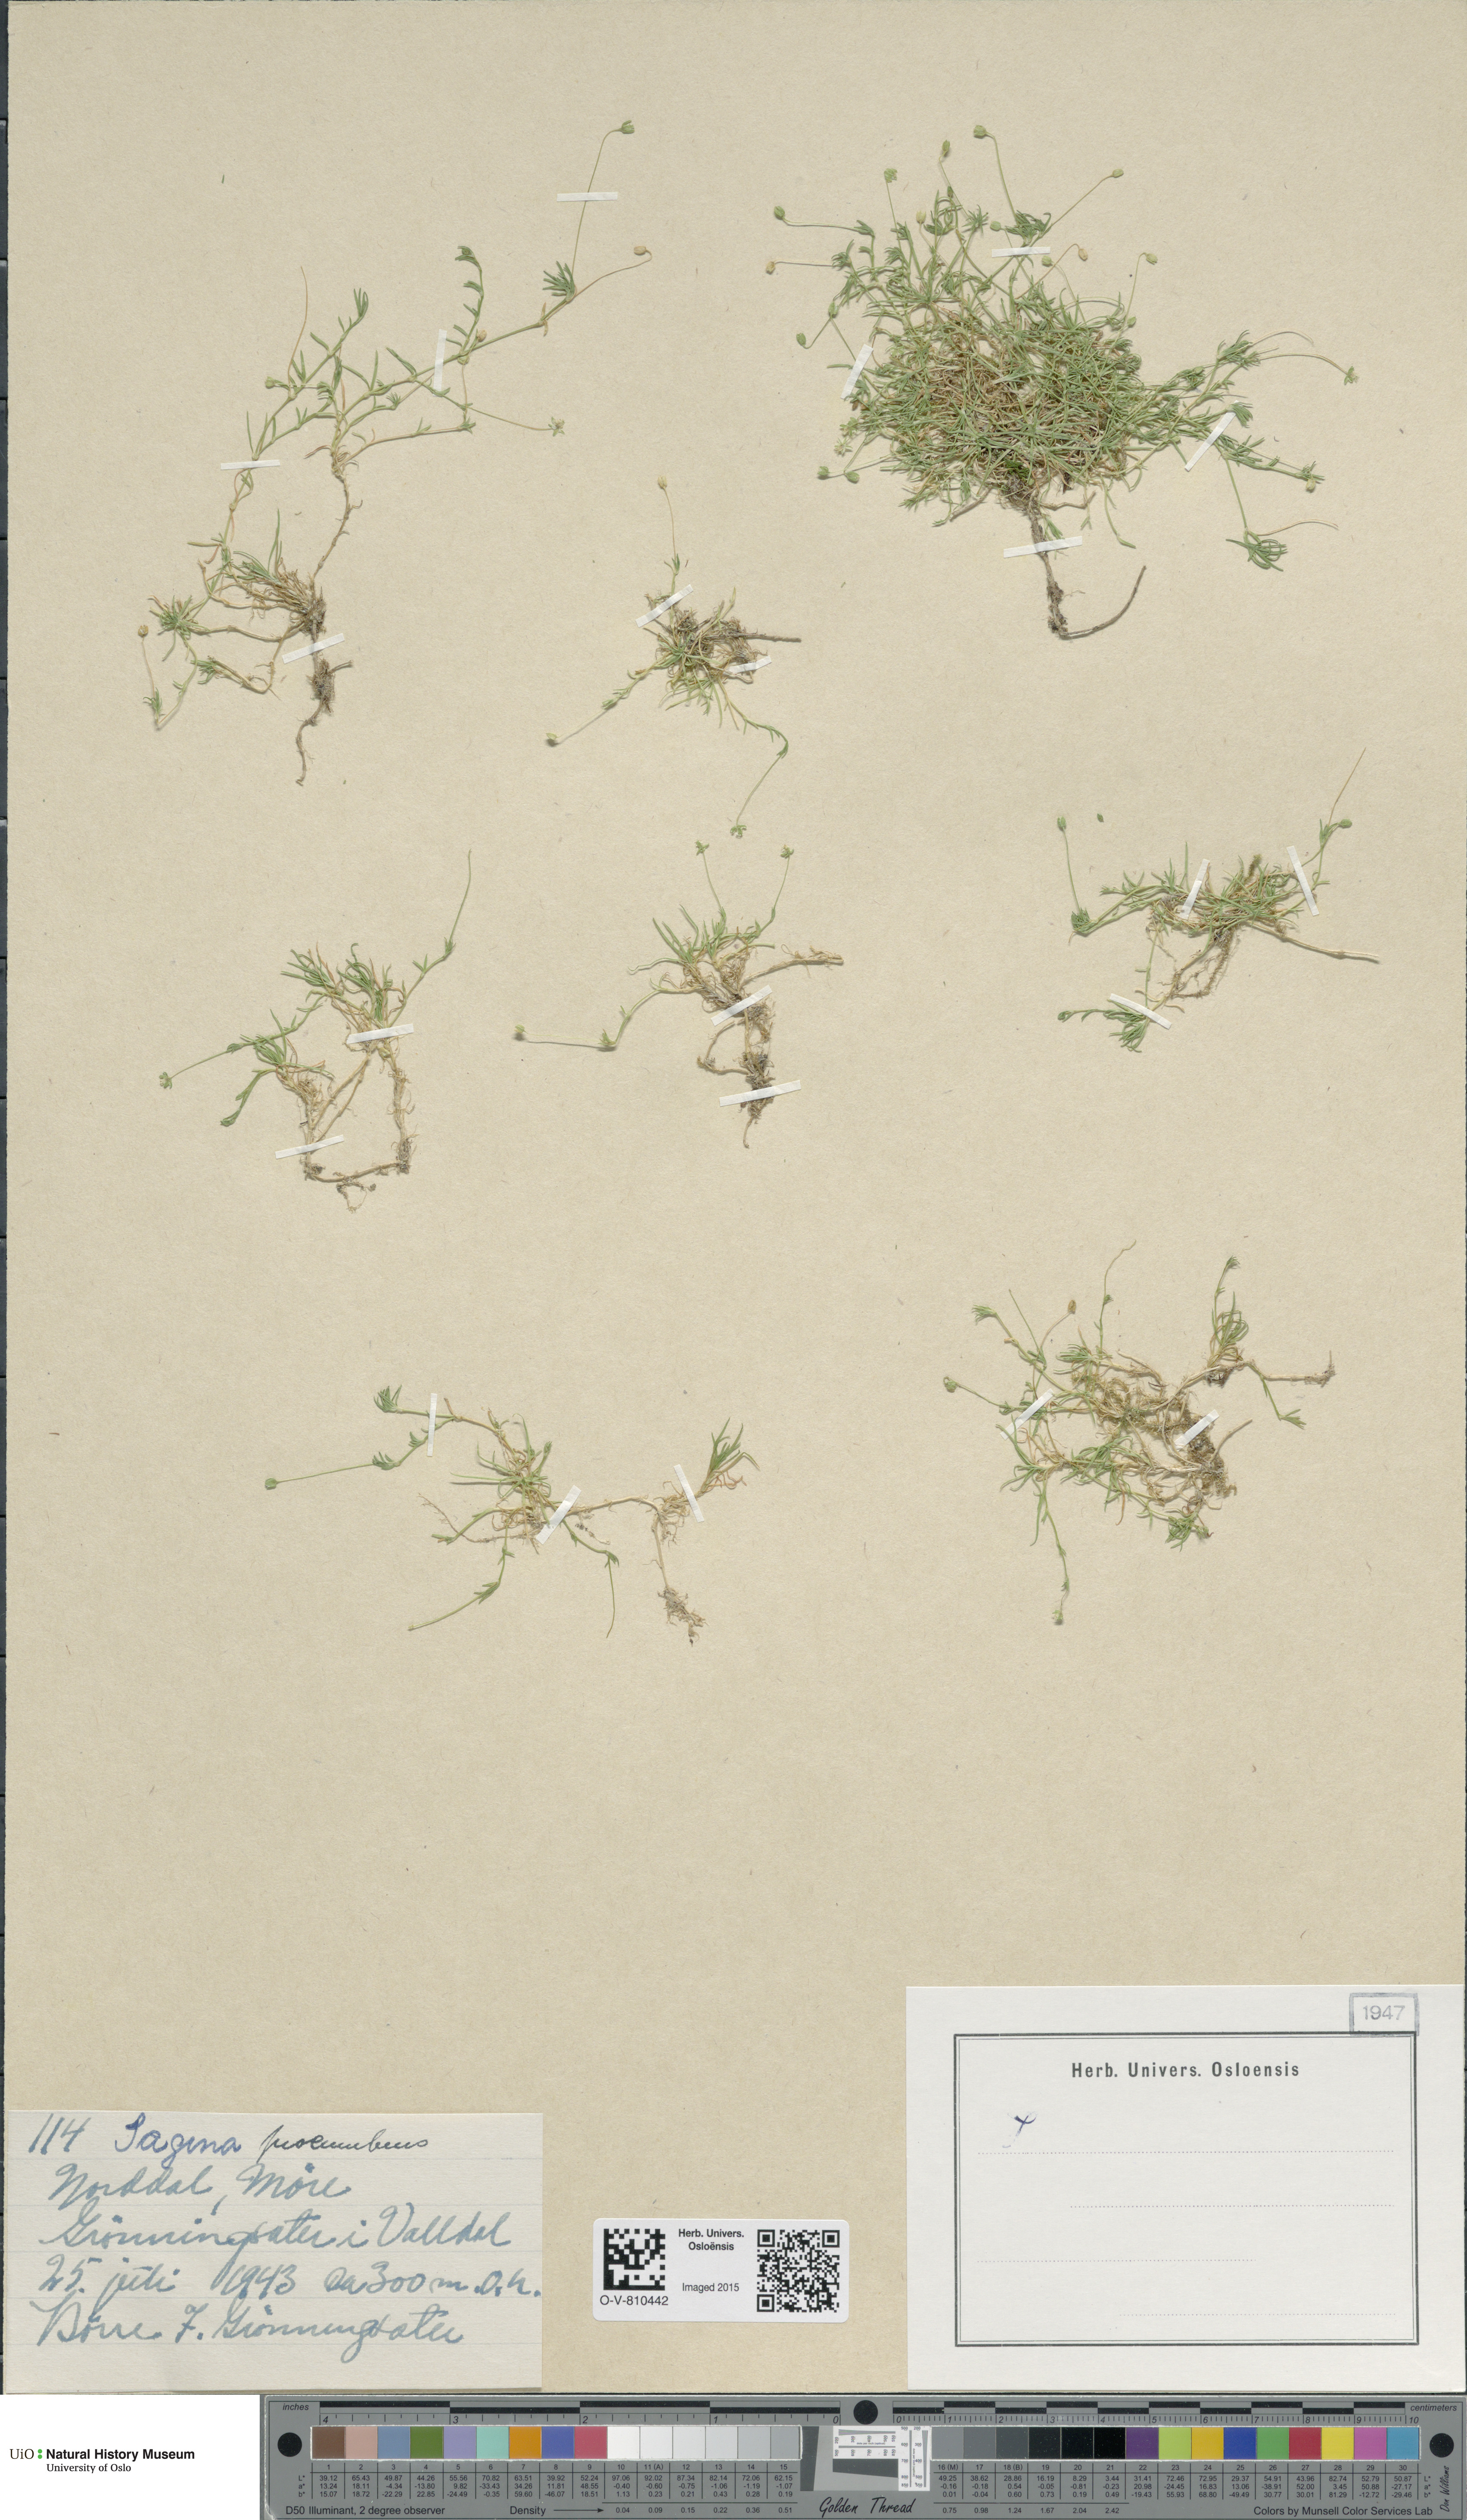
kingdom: Plantae
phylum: Tracheophyta
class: Magnoliopsida
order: Caryophyllales
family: Caryophyllaceae
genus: Sagina
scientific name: Sagina procumbens
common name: Procumbent pearlwort
